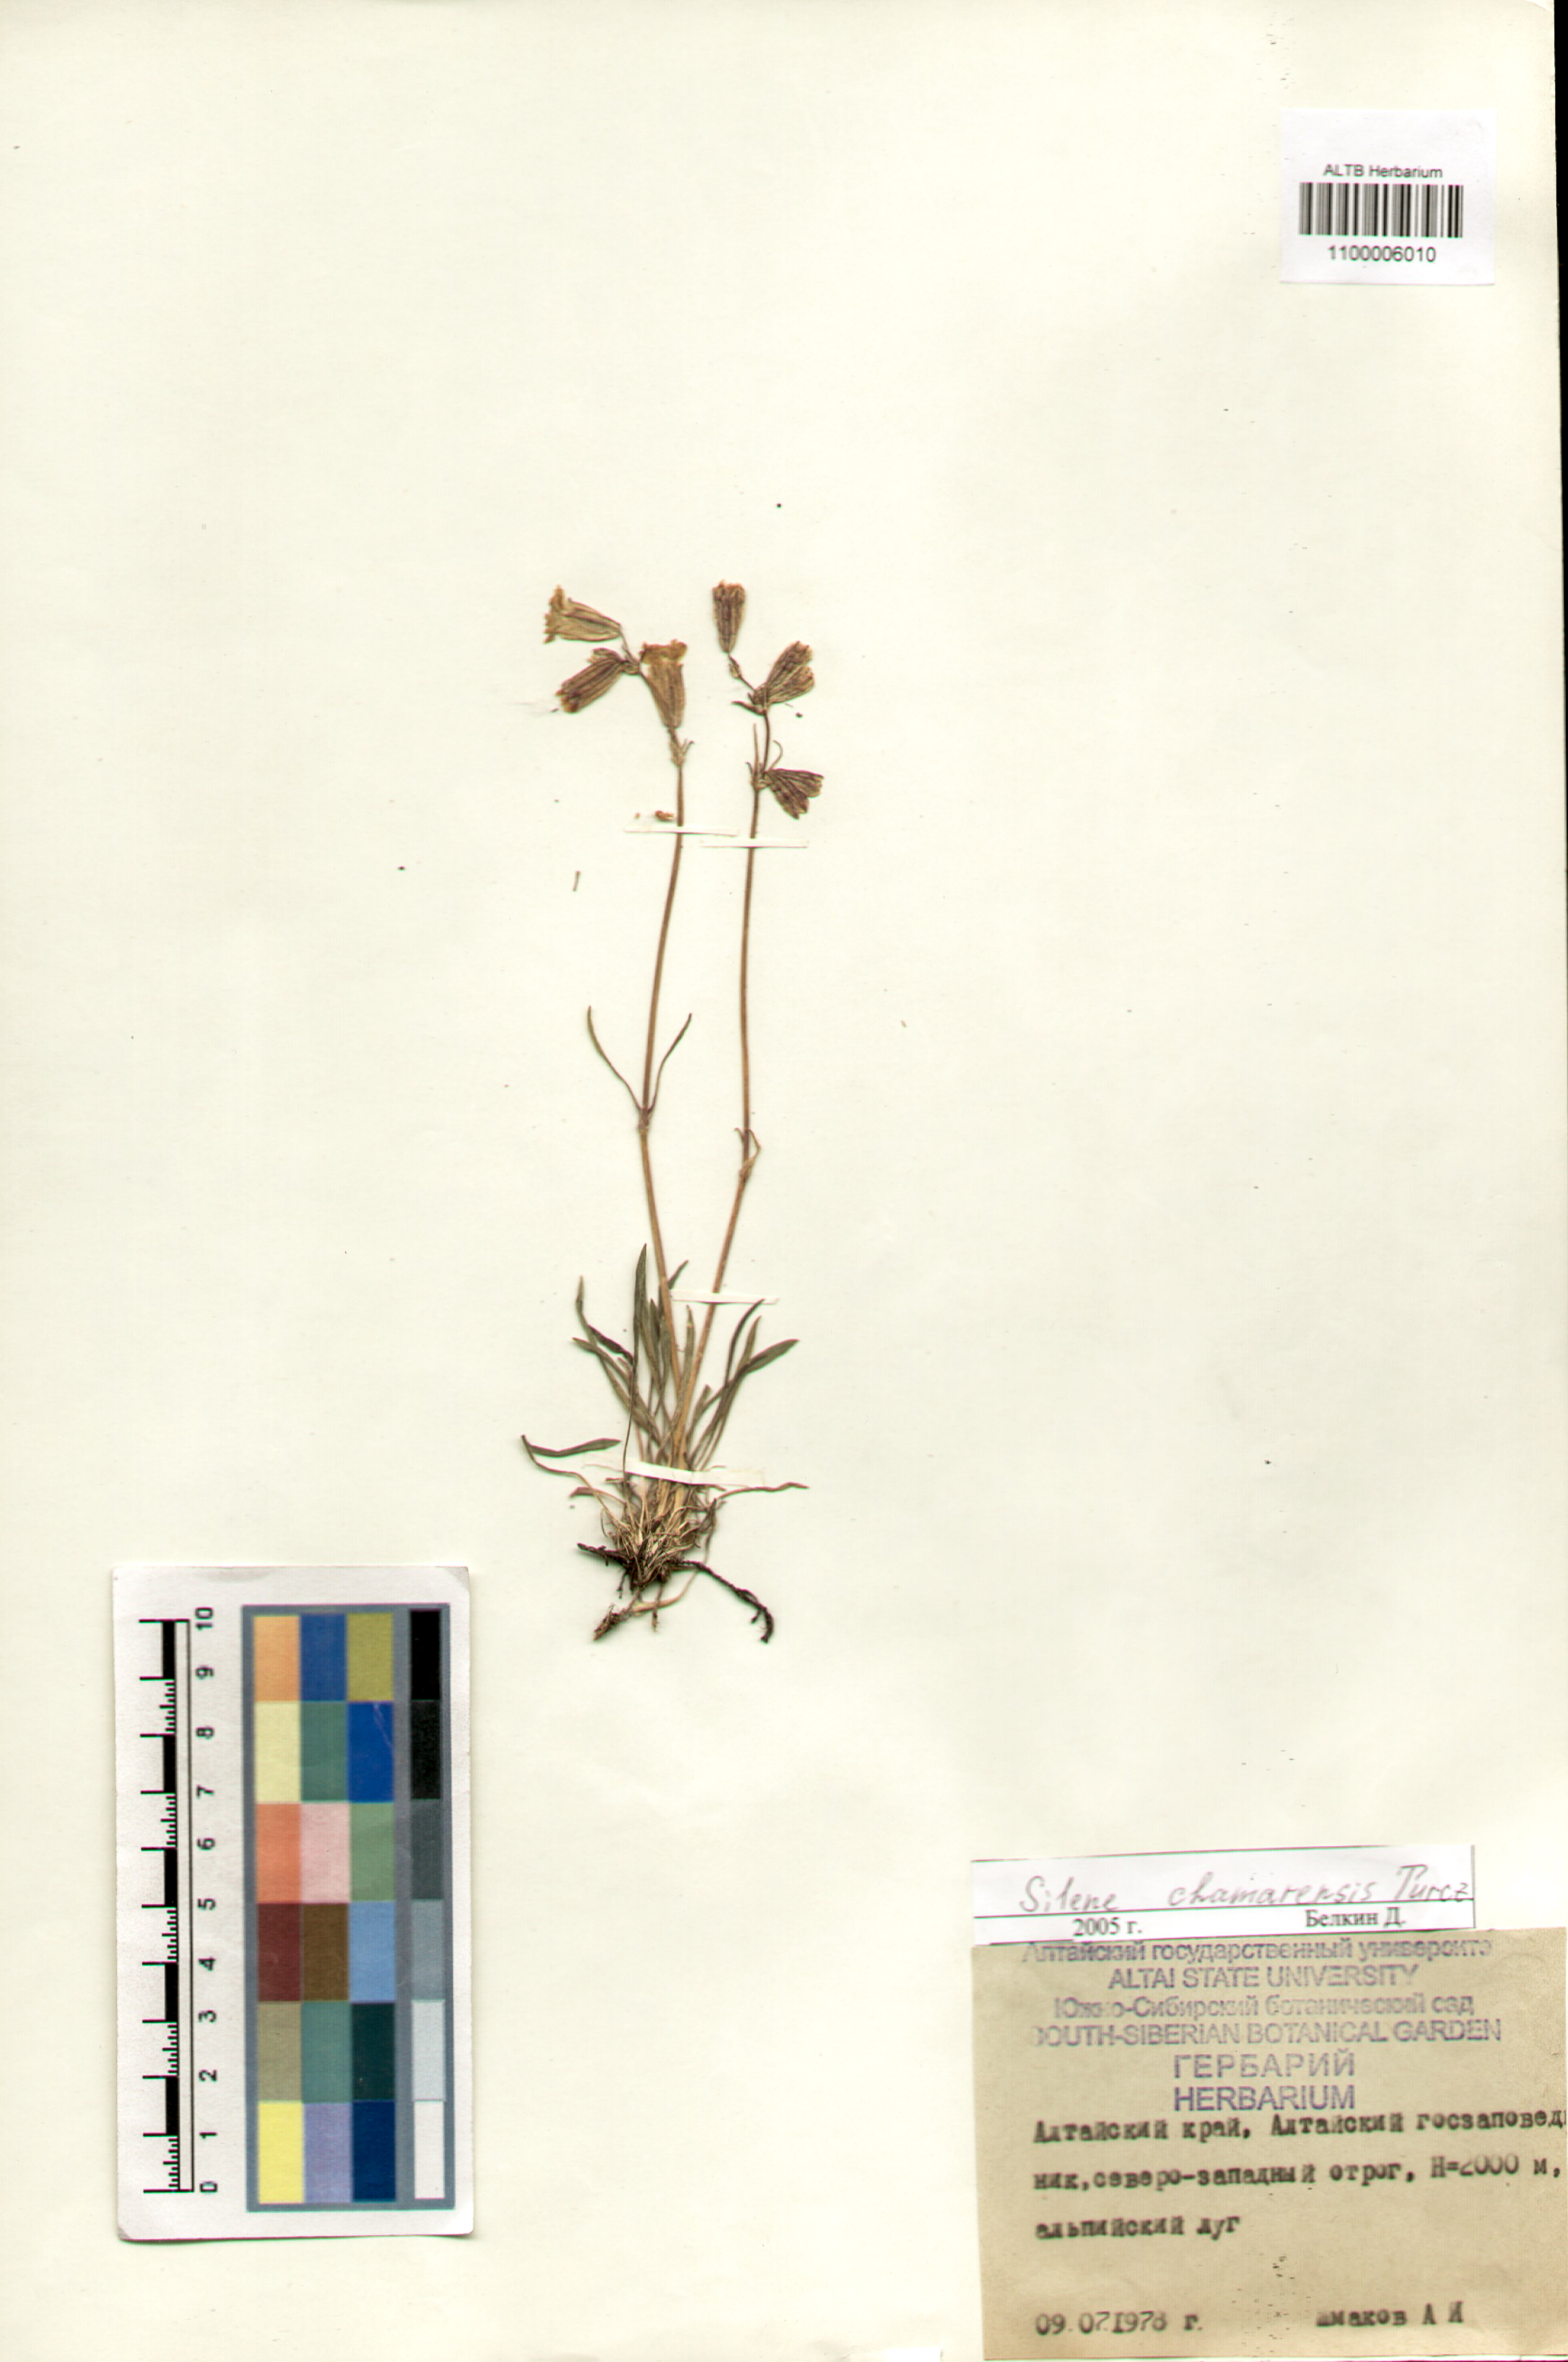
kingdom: Plantae
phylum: Tracheophyta
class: Magnoliopsida
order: Caryophyllales
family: Caryophyllaceae
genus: Silene
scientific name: Silene chamarensis
